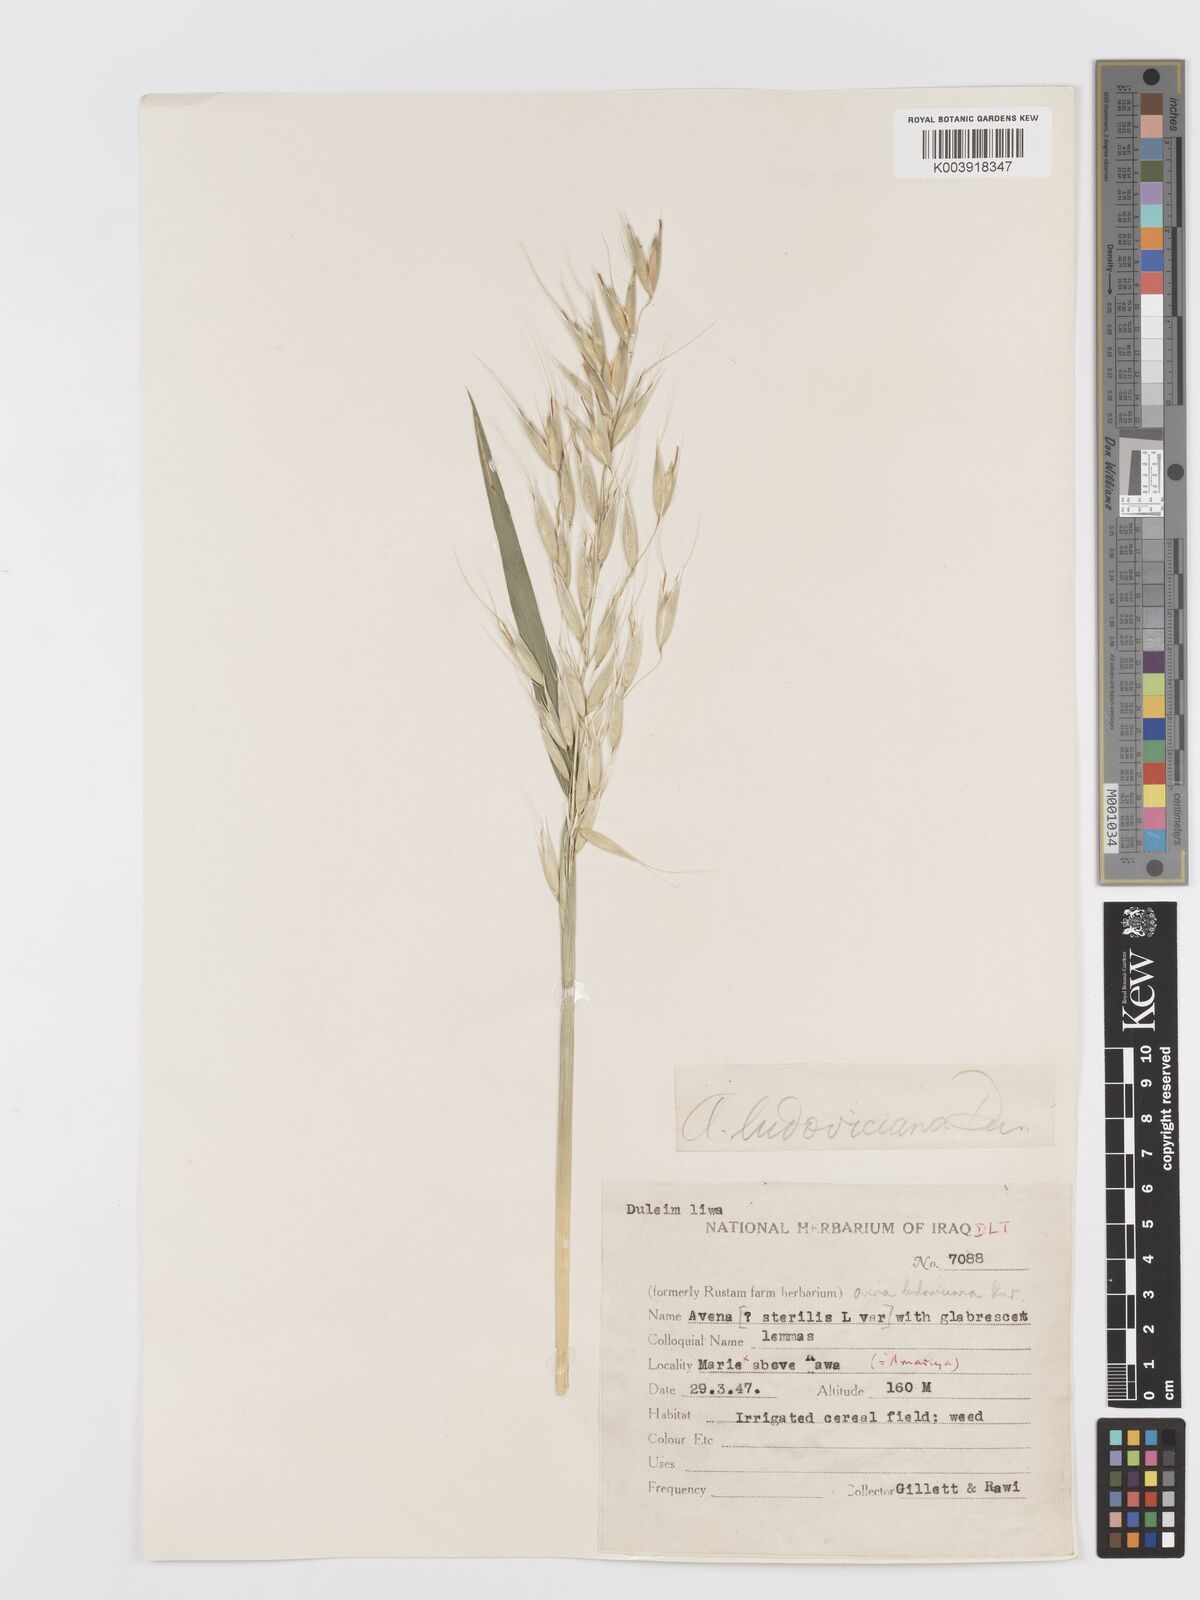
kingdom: Plantae
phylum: Tracheophyta
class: Liliopsida
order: Poales
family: Poaceae
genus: Avena
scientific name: Avena sterilis
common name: Animated oat
